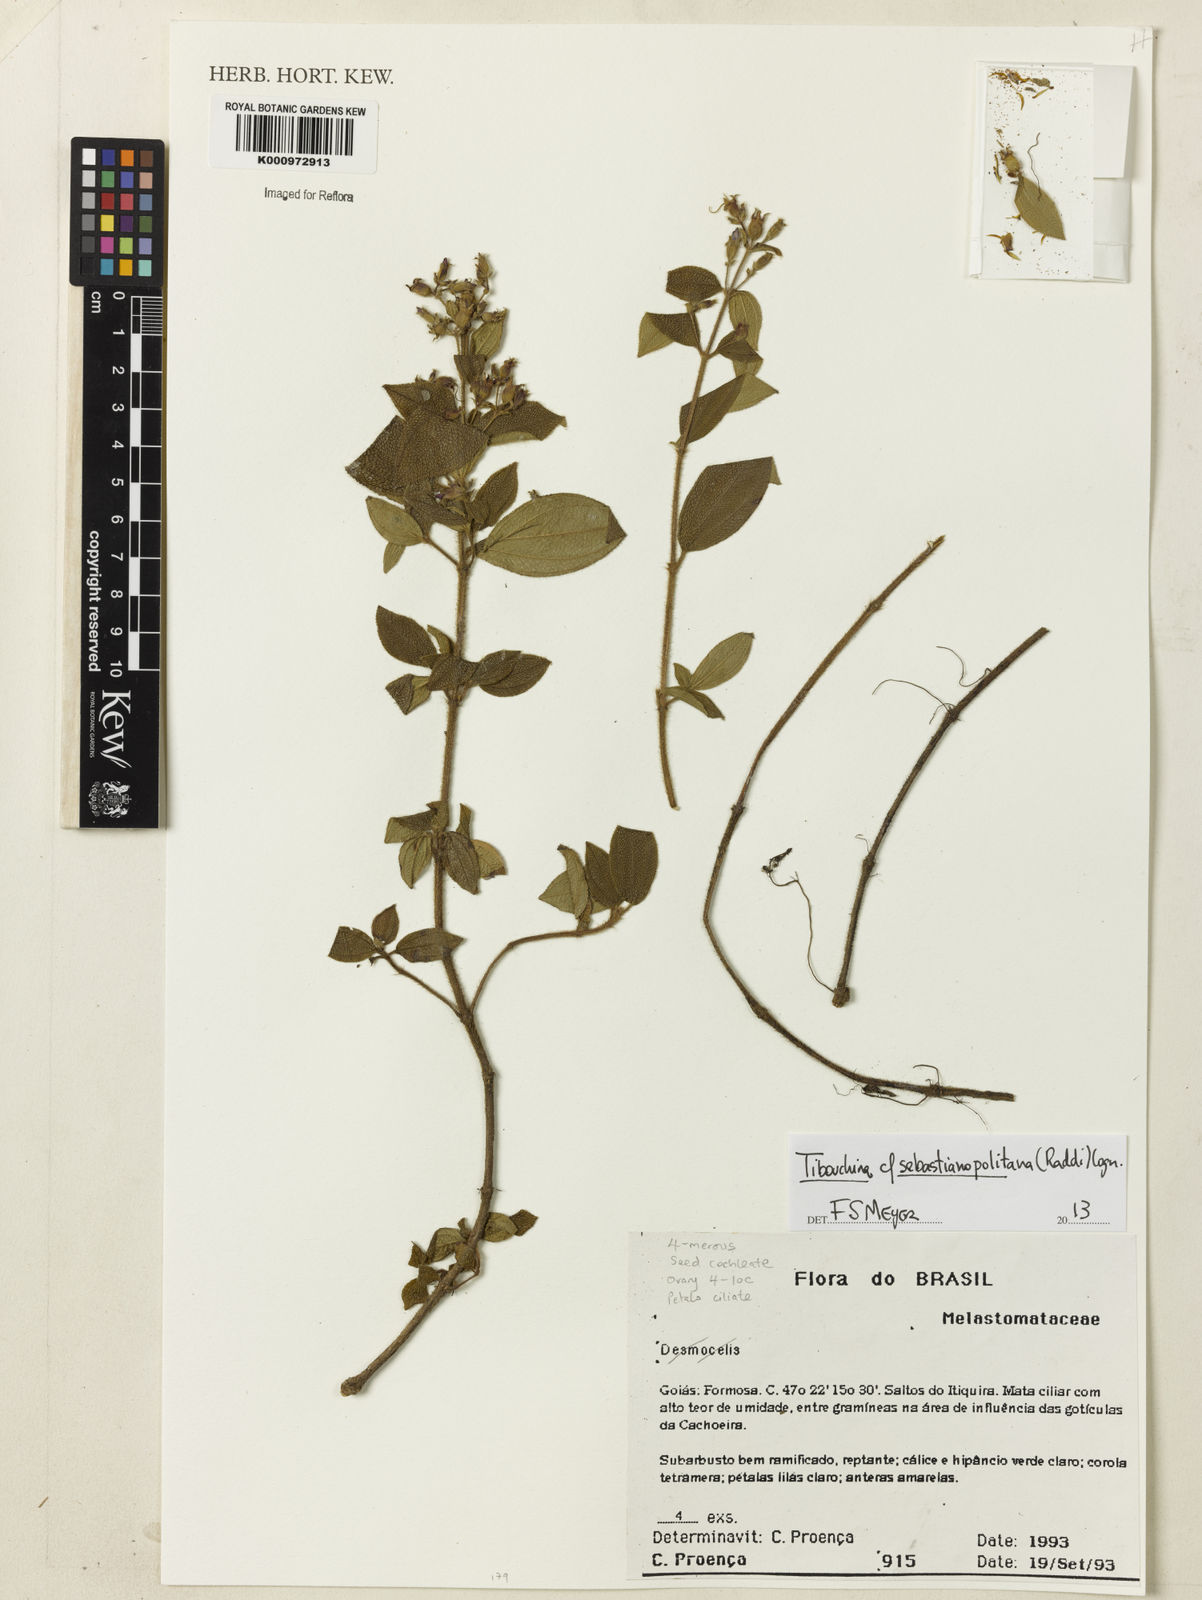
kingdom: Plantae
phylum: Tracheophyta
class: Magnoliopsida
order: Myrtales
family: Melastomataceae
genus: Chaetogastra
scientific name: Chaetogastra sebastianopolitana
